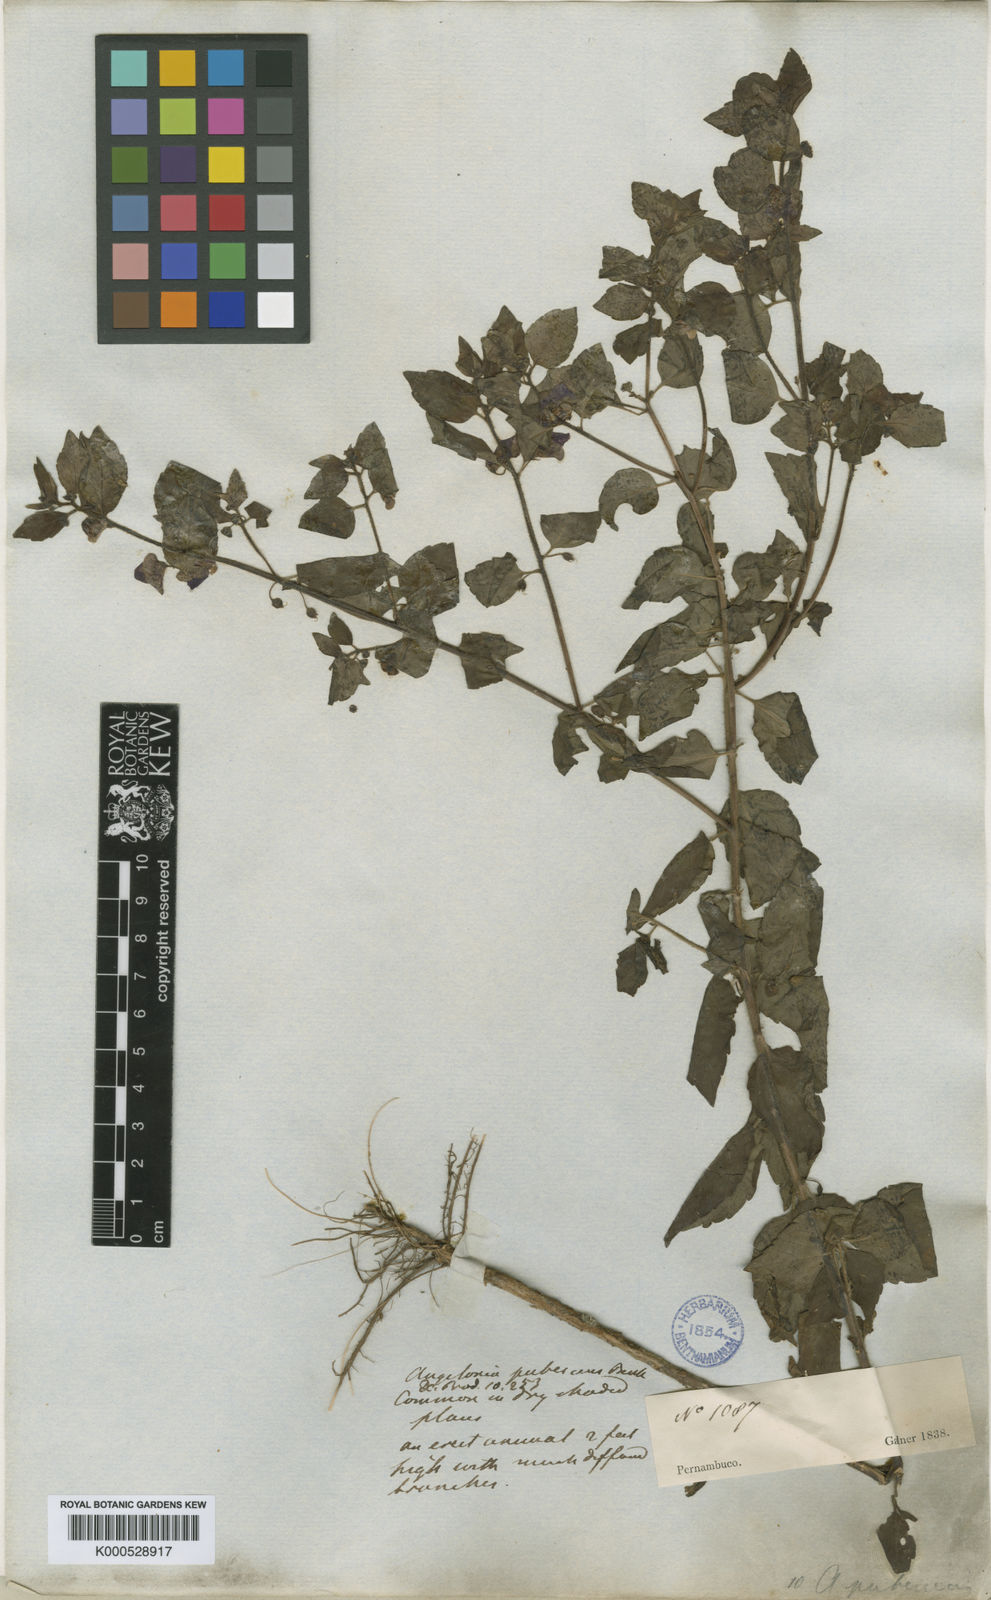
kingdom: Plantae
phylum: Tracheophyta
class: Magnoliopsida
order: Lamiales
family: Plantaginaceae
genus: Angelonia
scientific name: Angelonia pubescens
